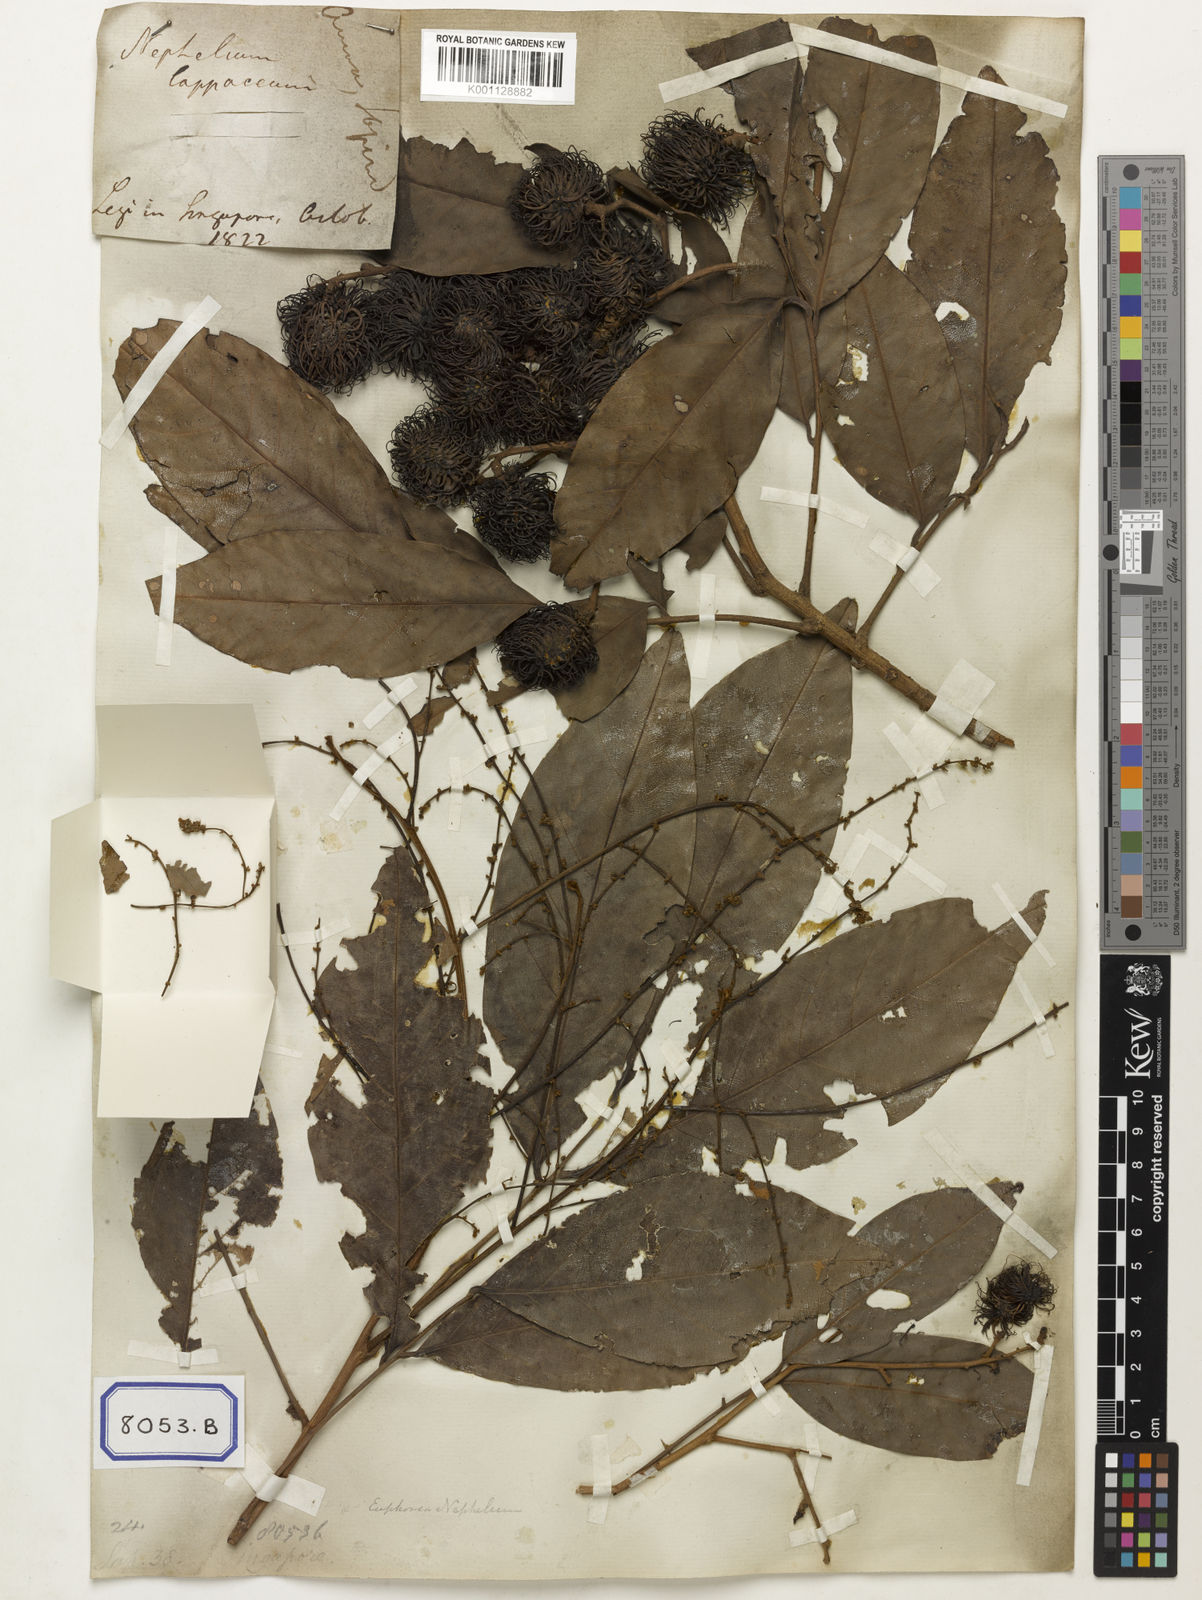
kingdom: Animalia
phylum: Arthropoda
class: Insecta
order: Coleoptera
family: Scarabaeidae
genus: Euphoria
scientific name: Euphoria
